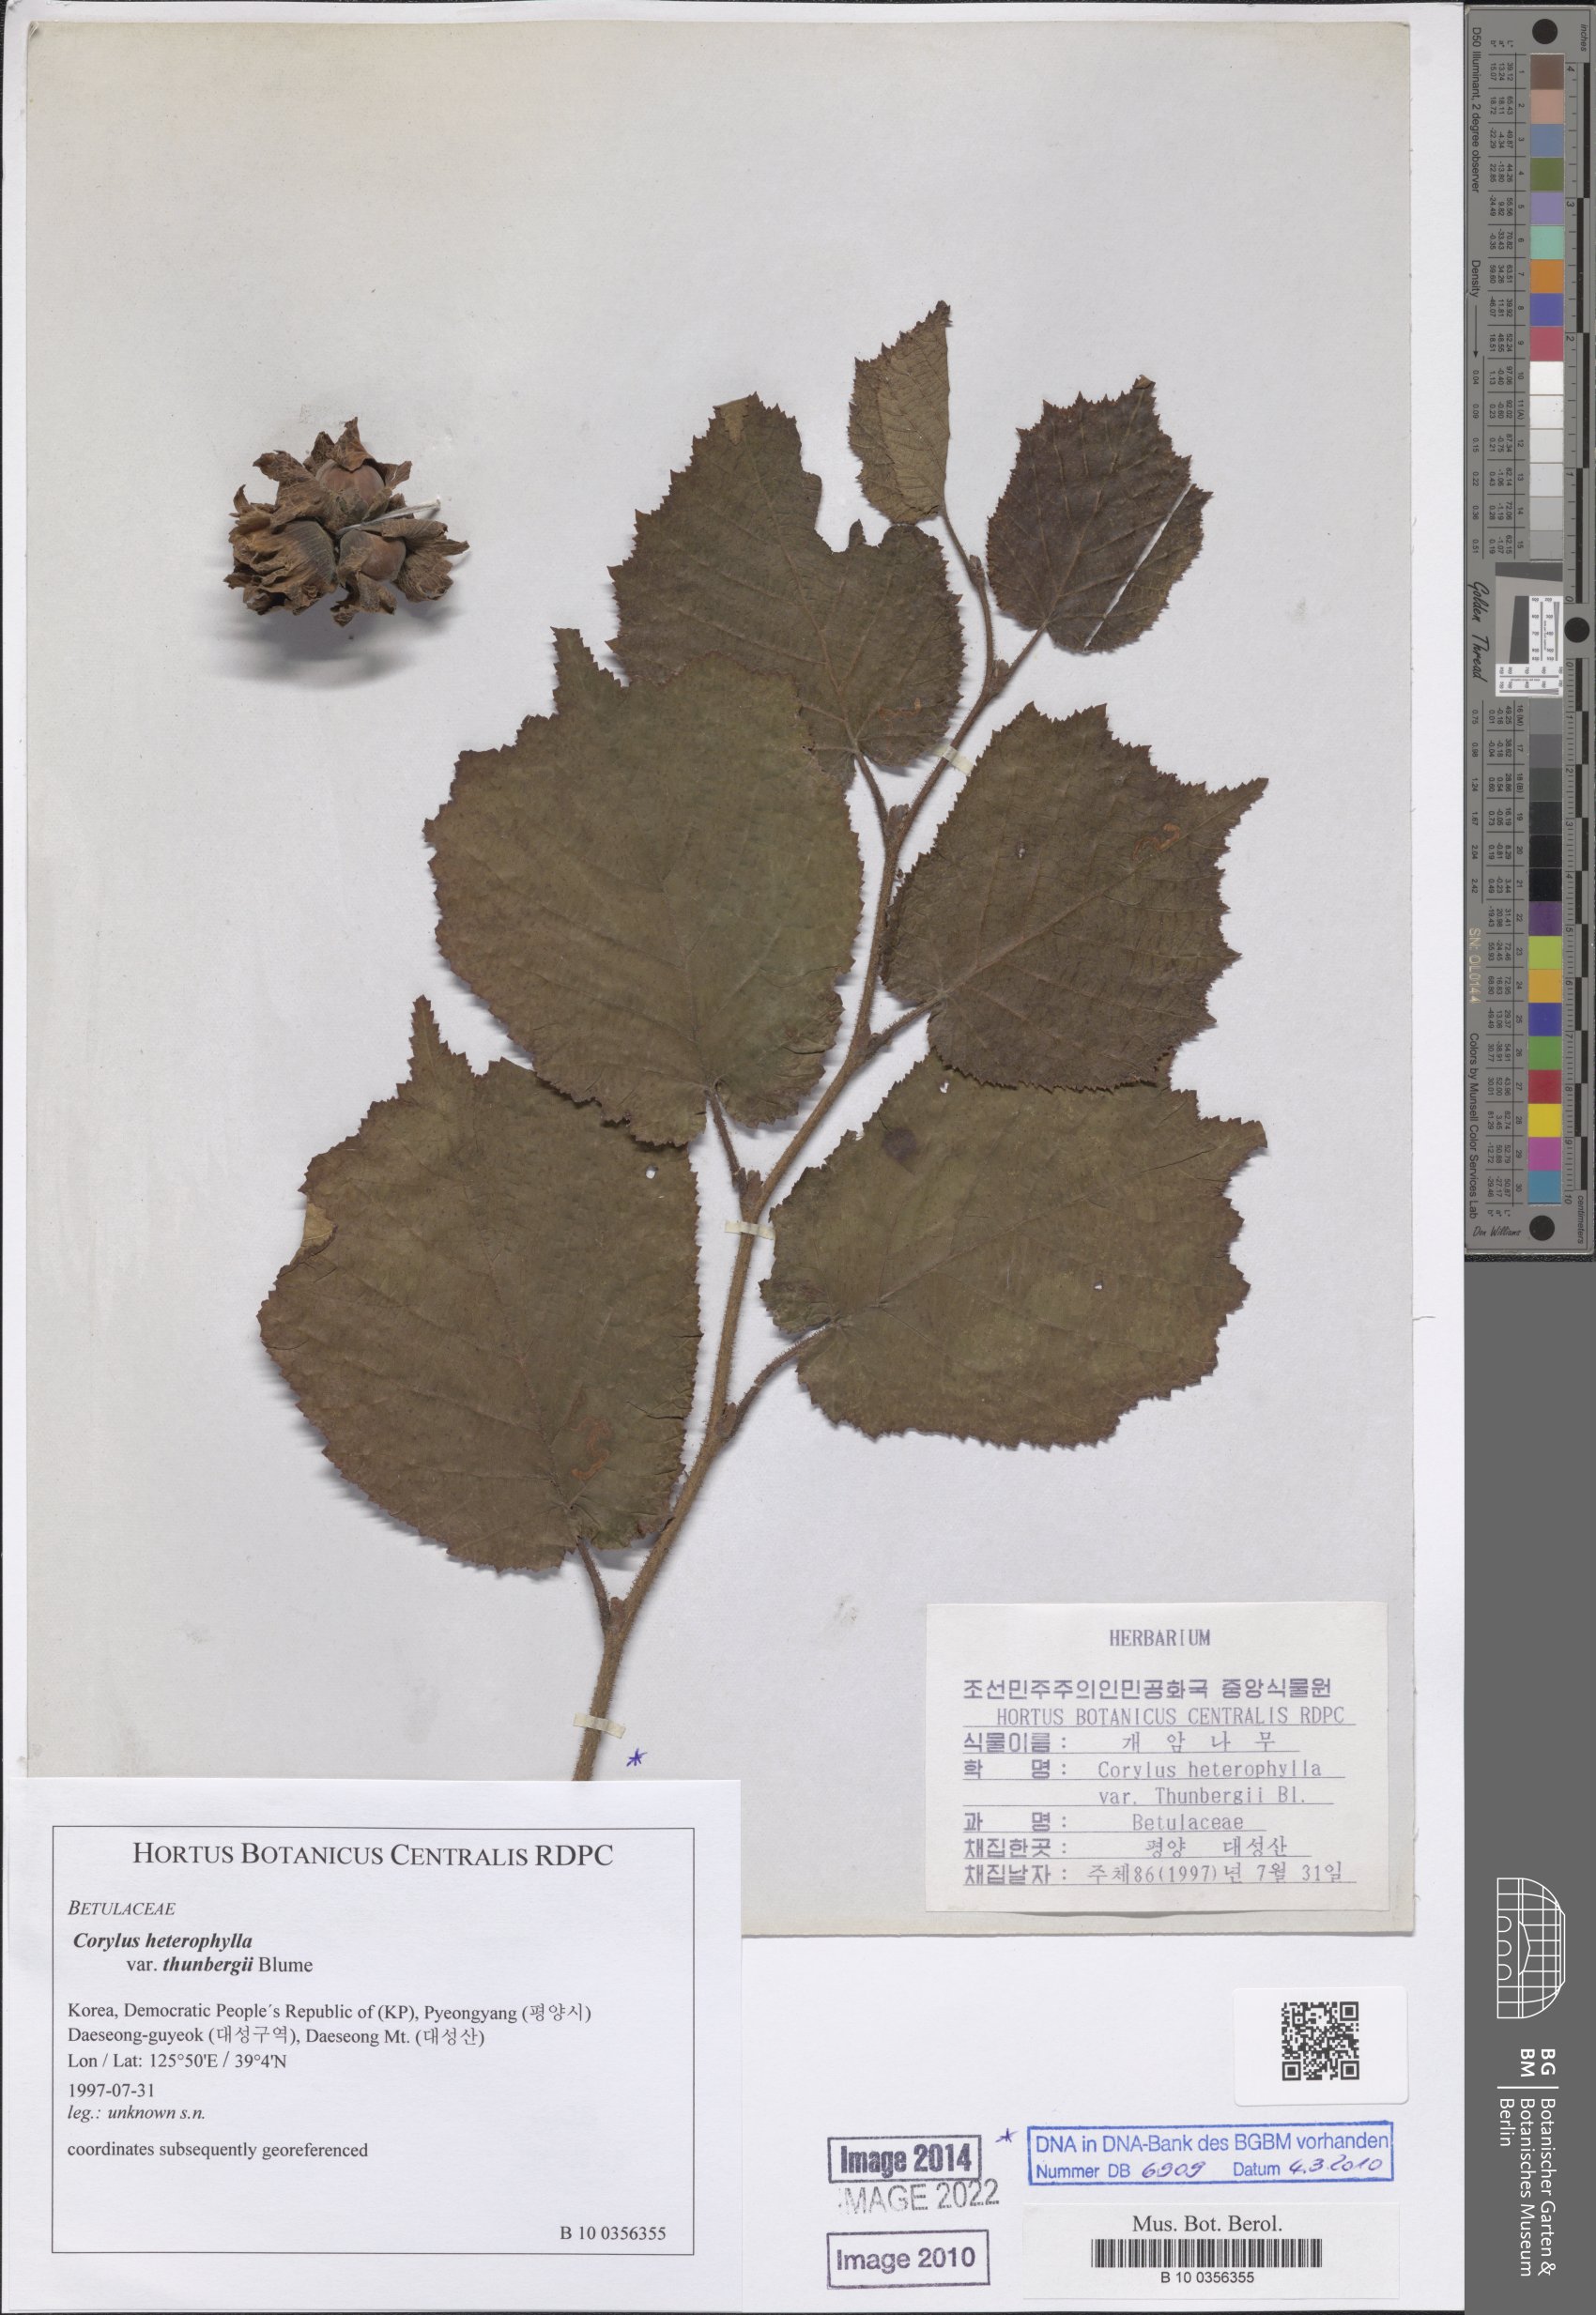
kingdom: Plantae
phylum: Tracheophyta
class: Magnoliopsida
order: Fagales
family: Betulaceae
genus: Corylus
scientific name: Corylus heterophylla
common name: Siberian hazelnut
